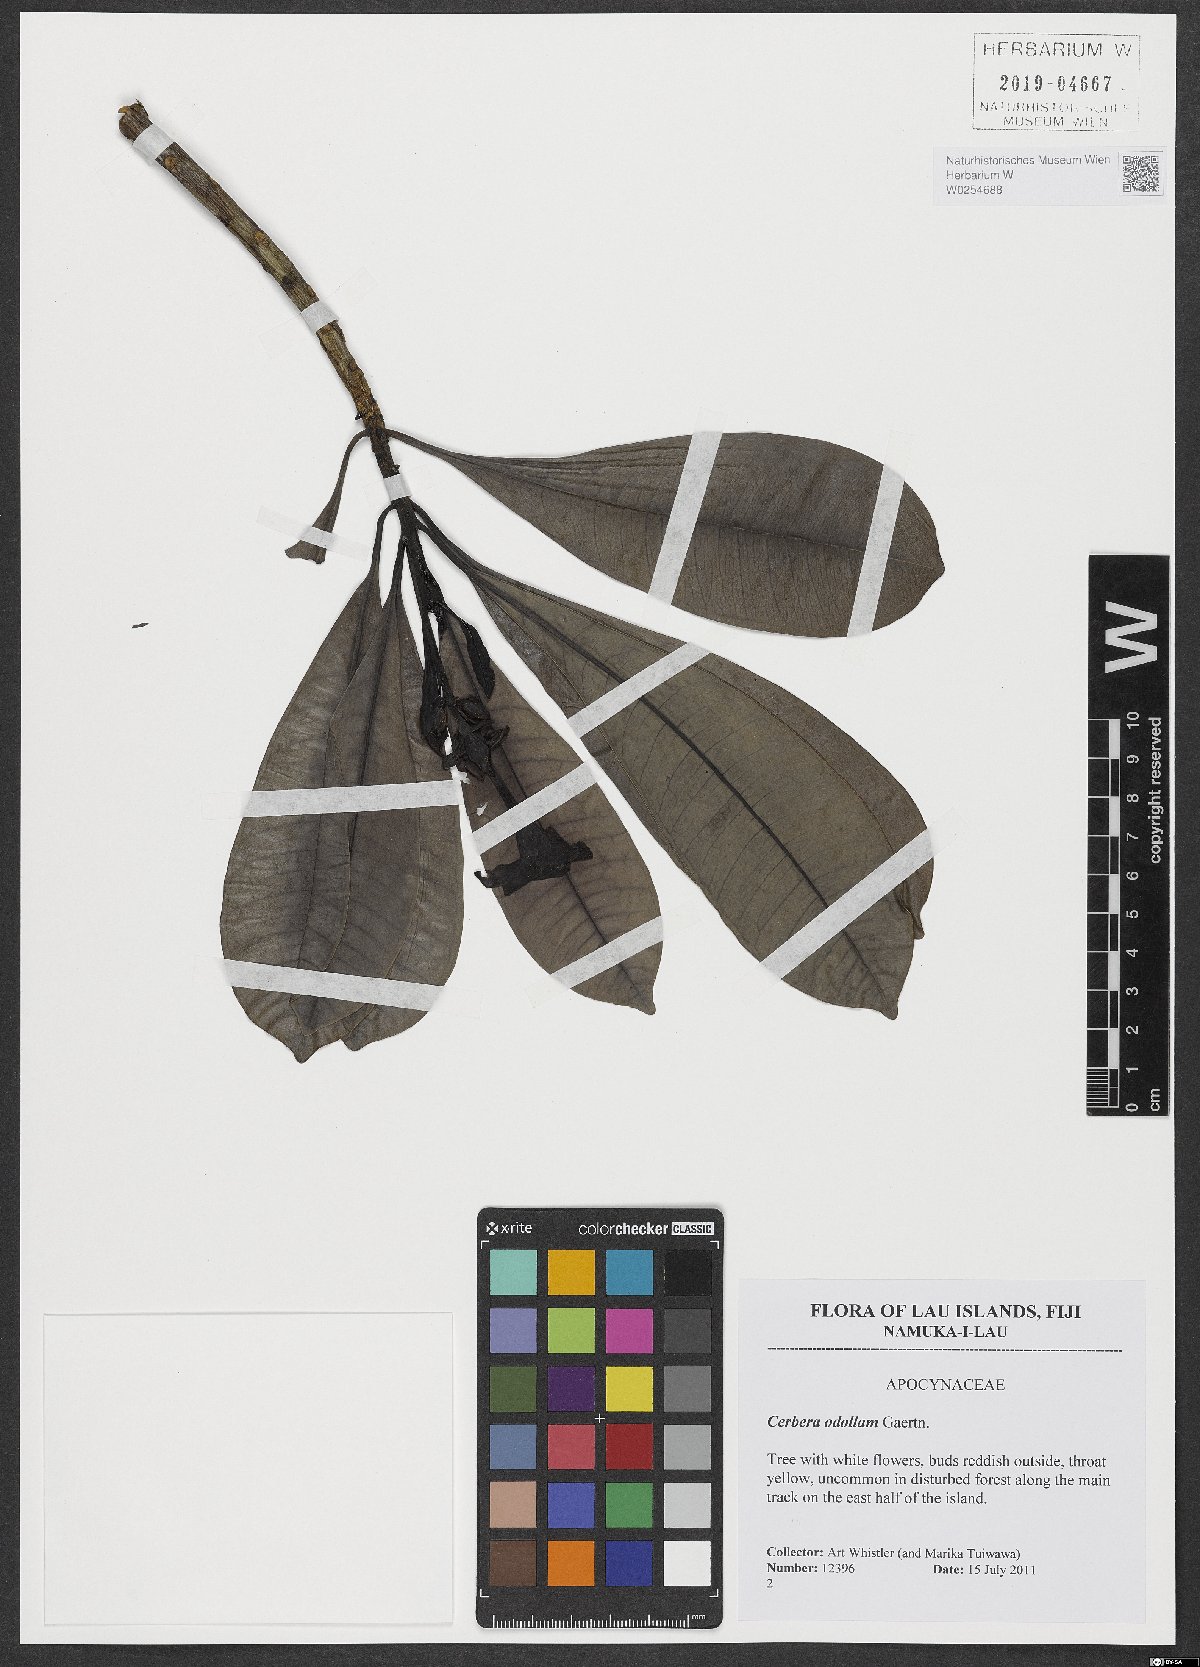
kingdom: Plantae
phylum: Tracheophyta
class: Magnoliopsida
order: Gentianales
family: Apocynaceae
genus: Cerbera
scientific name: Cerbera odollam
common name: Pong-pong
